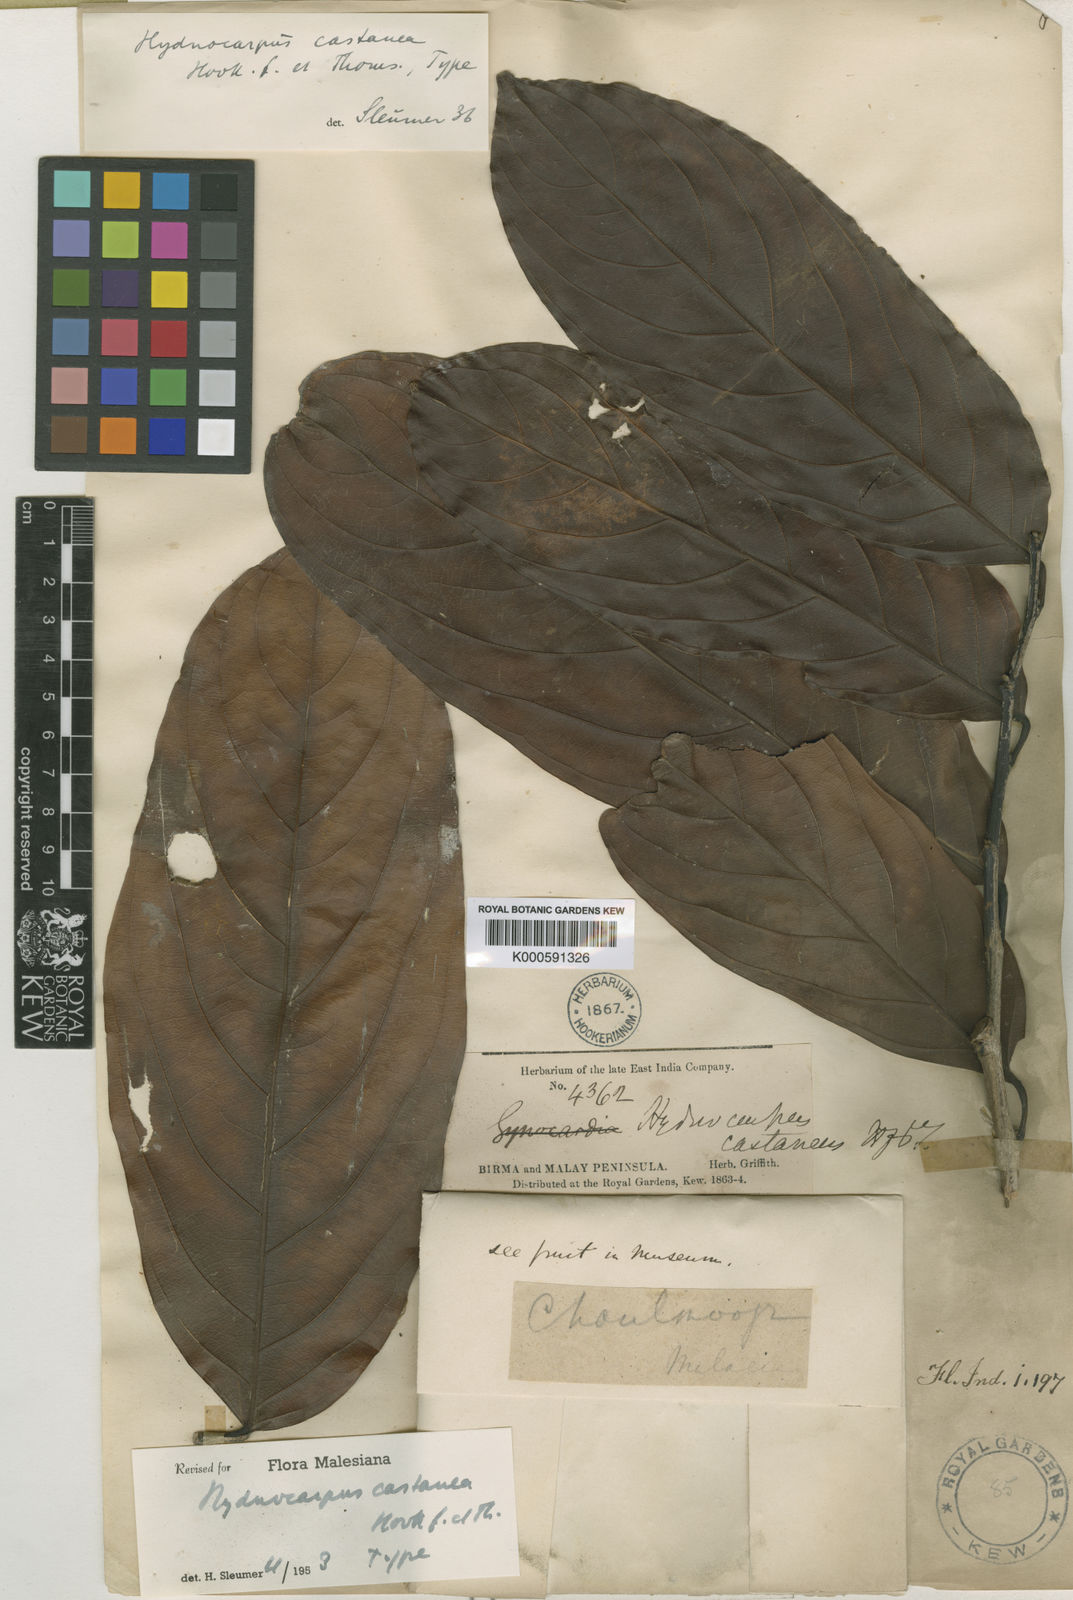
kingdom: Plantae
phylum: Tracheophyta
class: Magnoliopsida
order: Malpighiales
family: Achariaceae
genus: Hydnocarpus
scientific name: Hydnocarpus castaneus
